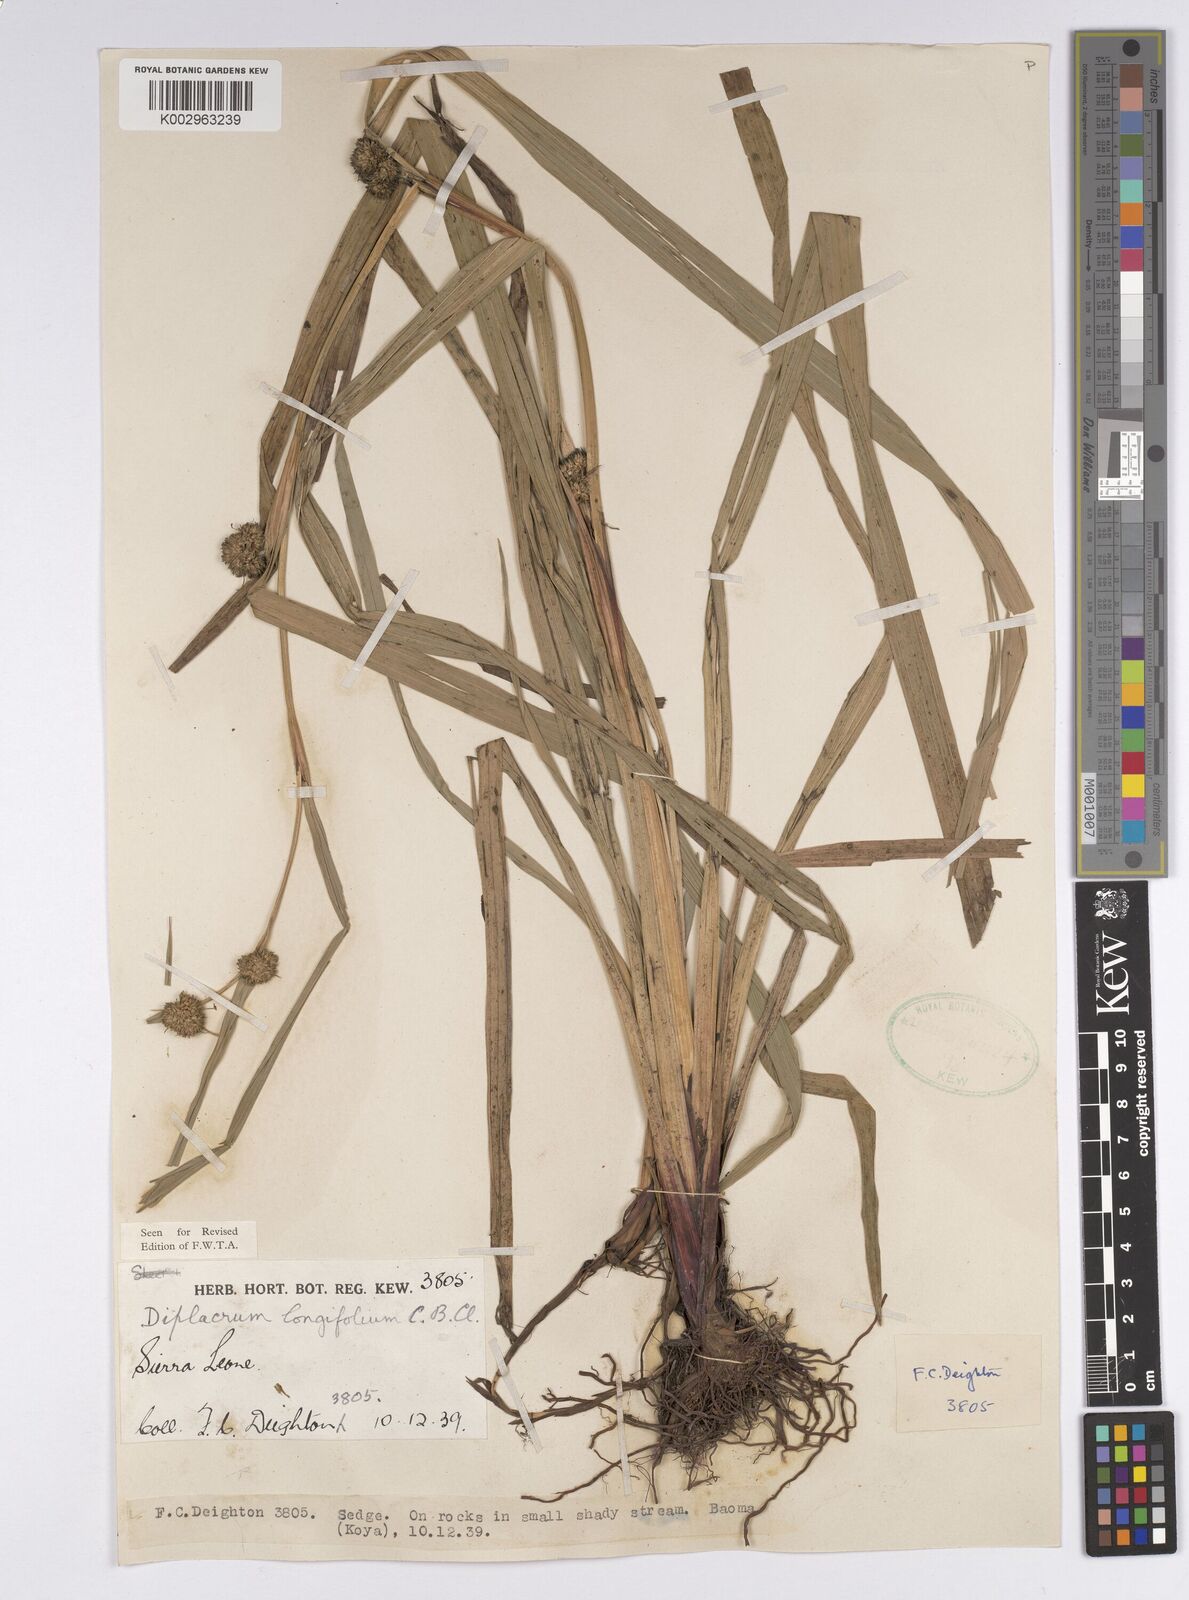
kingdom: Plantae
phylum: Tracheophyta
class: Liliopsida
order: Poales
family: Cyperaceae
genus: Diplacrum
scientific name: Diplacrum capitatum
